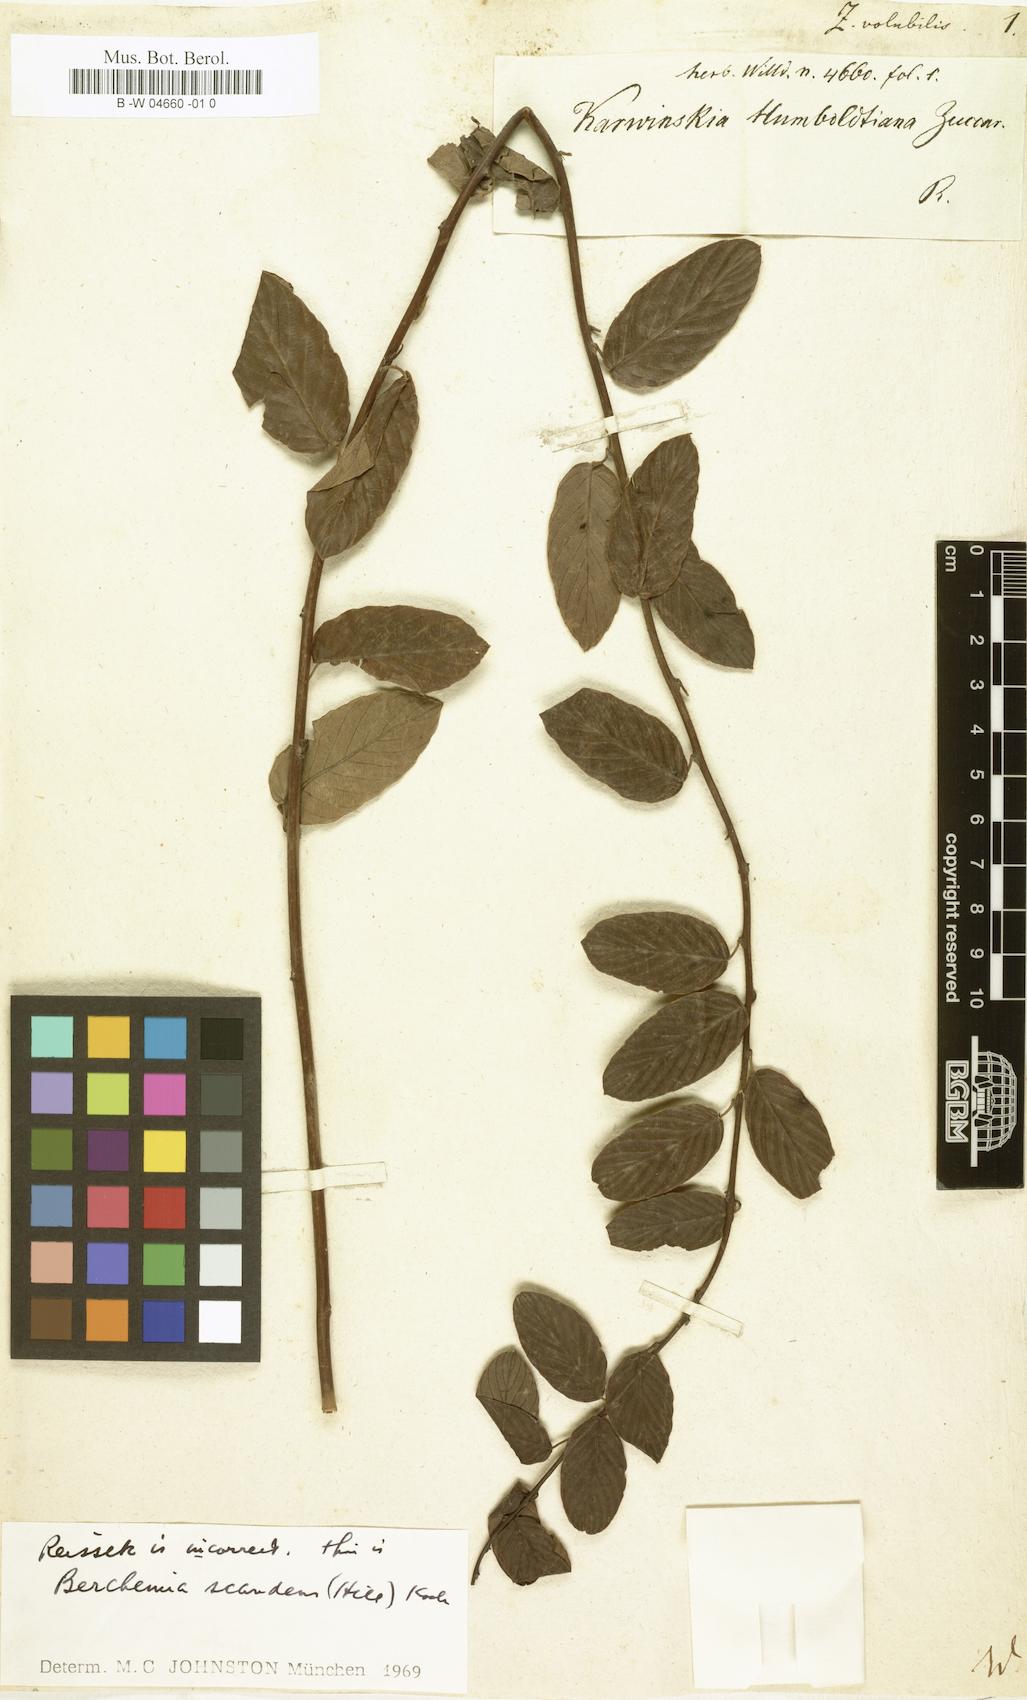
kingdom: Plantae
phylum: Tracheophyta
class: Magnoliopsida
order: Rosales
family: Rhamnaceae
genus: Berchemia
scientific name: Berchemia scandens
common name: Supplejack
